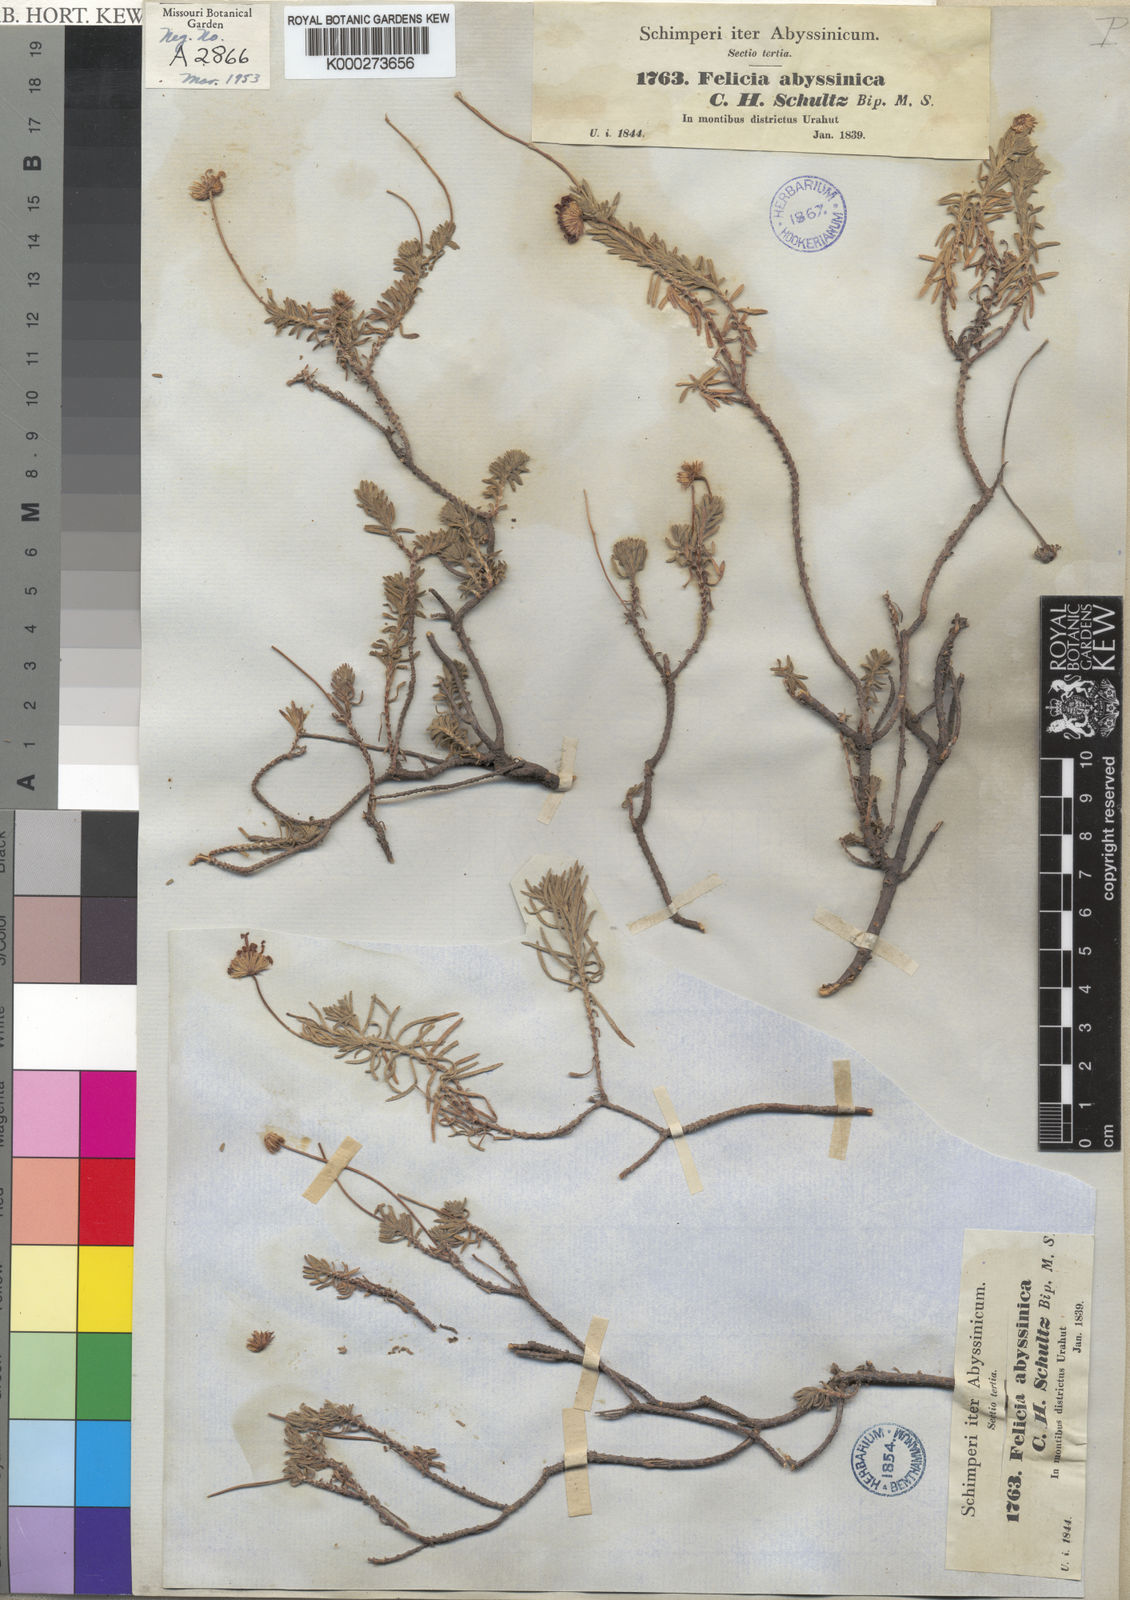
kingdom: Plantae
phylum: Tracheophyta
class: Magnoliopsida
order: Asterales
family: Asteraceae
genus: Felicia
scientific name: Felicia abyssinica
